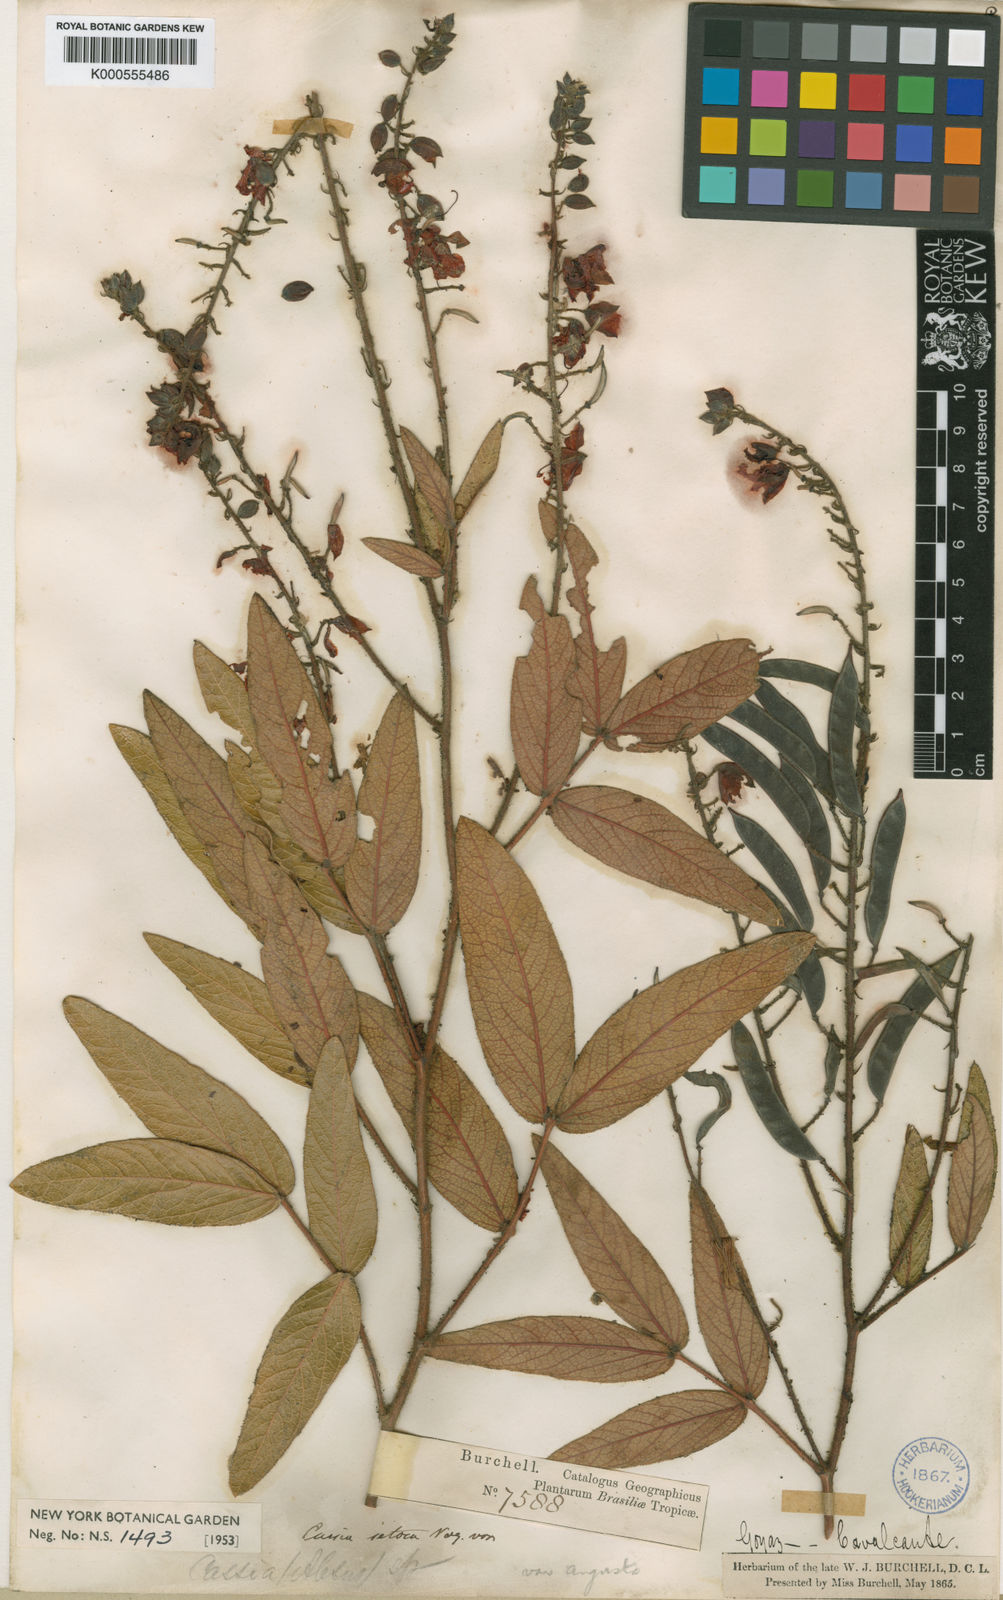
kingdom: Plantae
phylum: Tracheophyta
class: Magnoliopsida
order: Fabales
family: Fabaceae
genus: Chamaecrista
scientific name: Chamaecrista setosa
